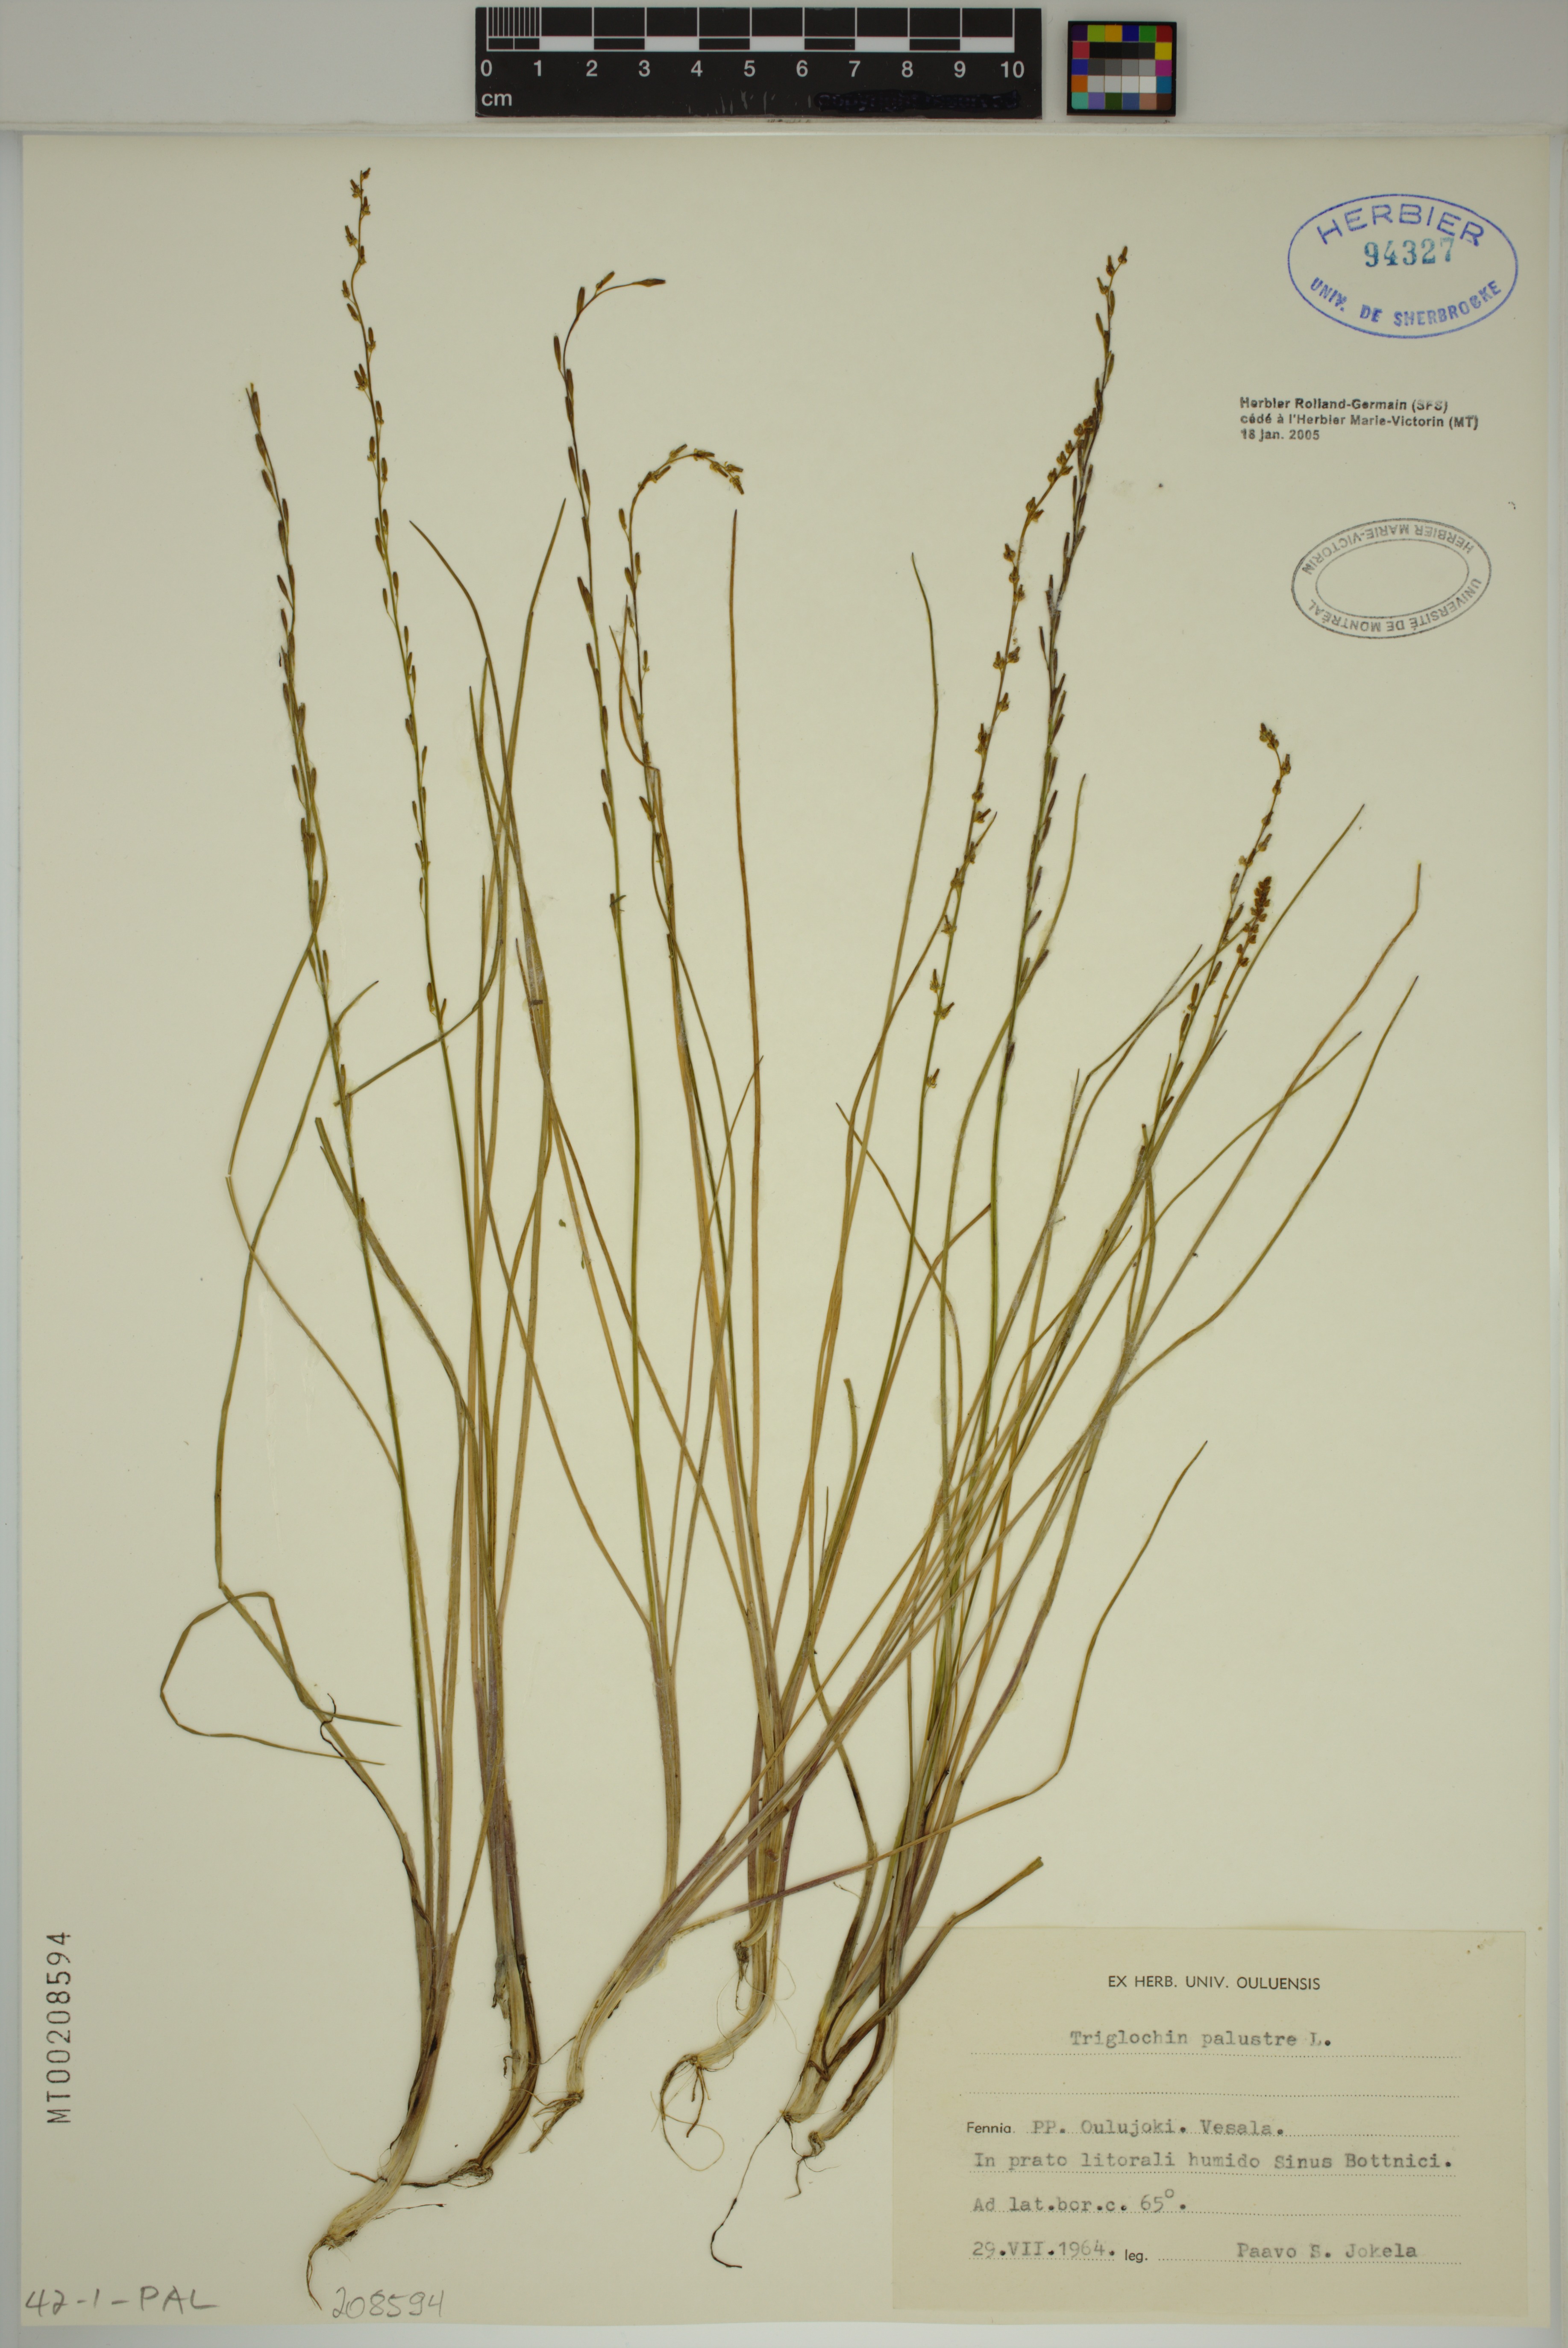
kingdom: Plantae
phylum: Tracheophyta
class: Liliopsida
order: Alismatales
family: Juncaginaceae
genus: Triglochin
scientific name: Triglochin palustris
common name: Marsh arrowgrass
